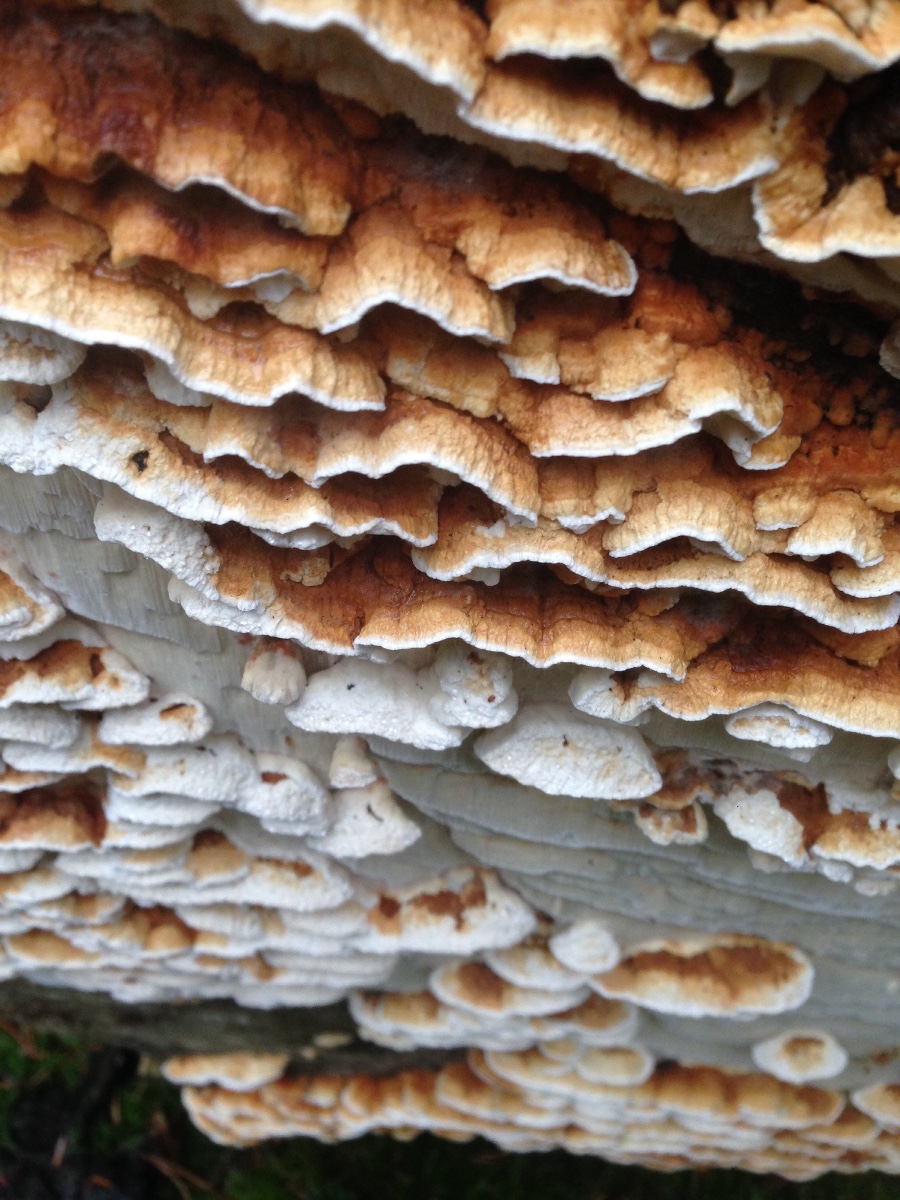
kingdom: Fungi
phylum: Basidiomycota
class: Agaricomycetes
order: Polyporales
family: Fomitopsidaceae
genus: Neoantrodia
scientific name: Neoantrodia serialis
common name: række-sejporesvamp
